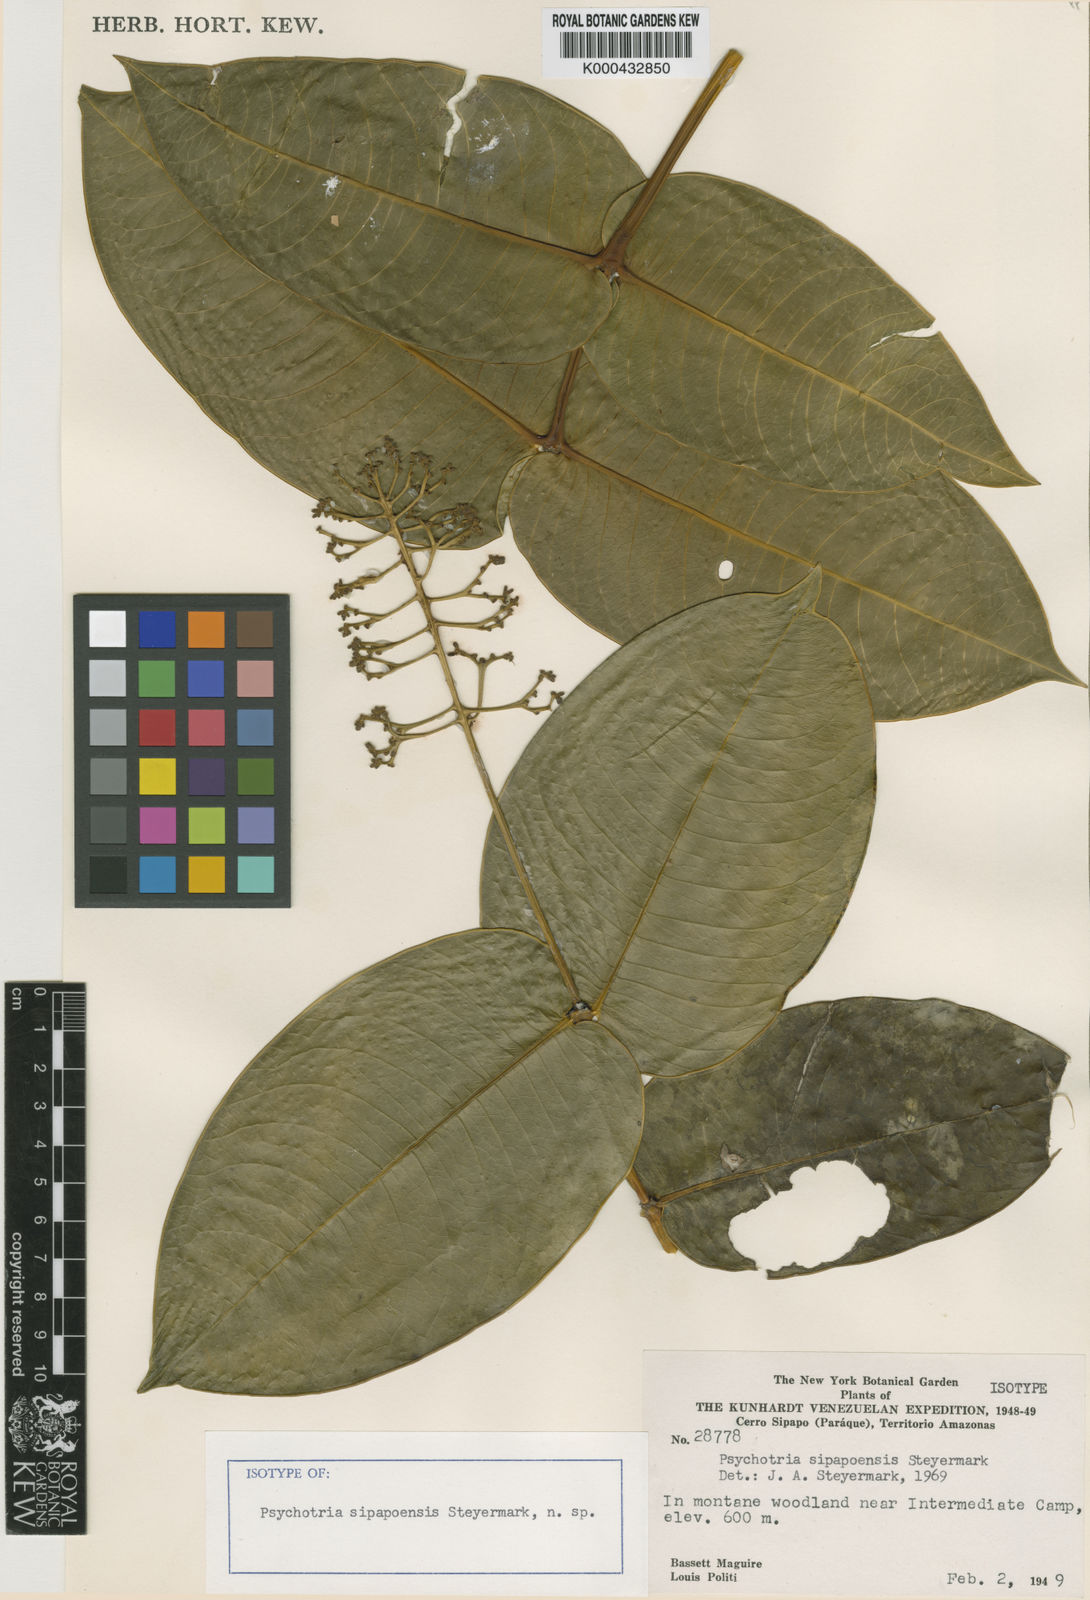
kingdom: Plantae
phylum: Tracheophyta
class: Magnoliopsida
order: Gentianales
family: Rubiaceae
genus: Palicourea
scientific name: Palicourea sipapoensis
